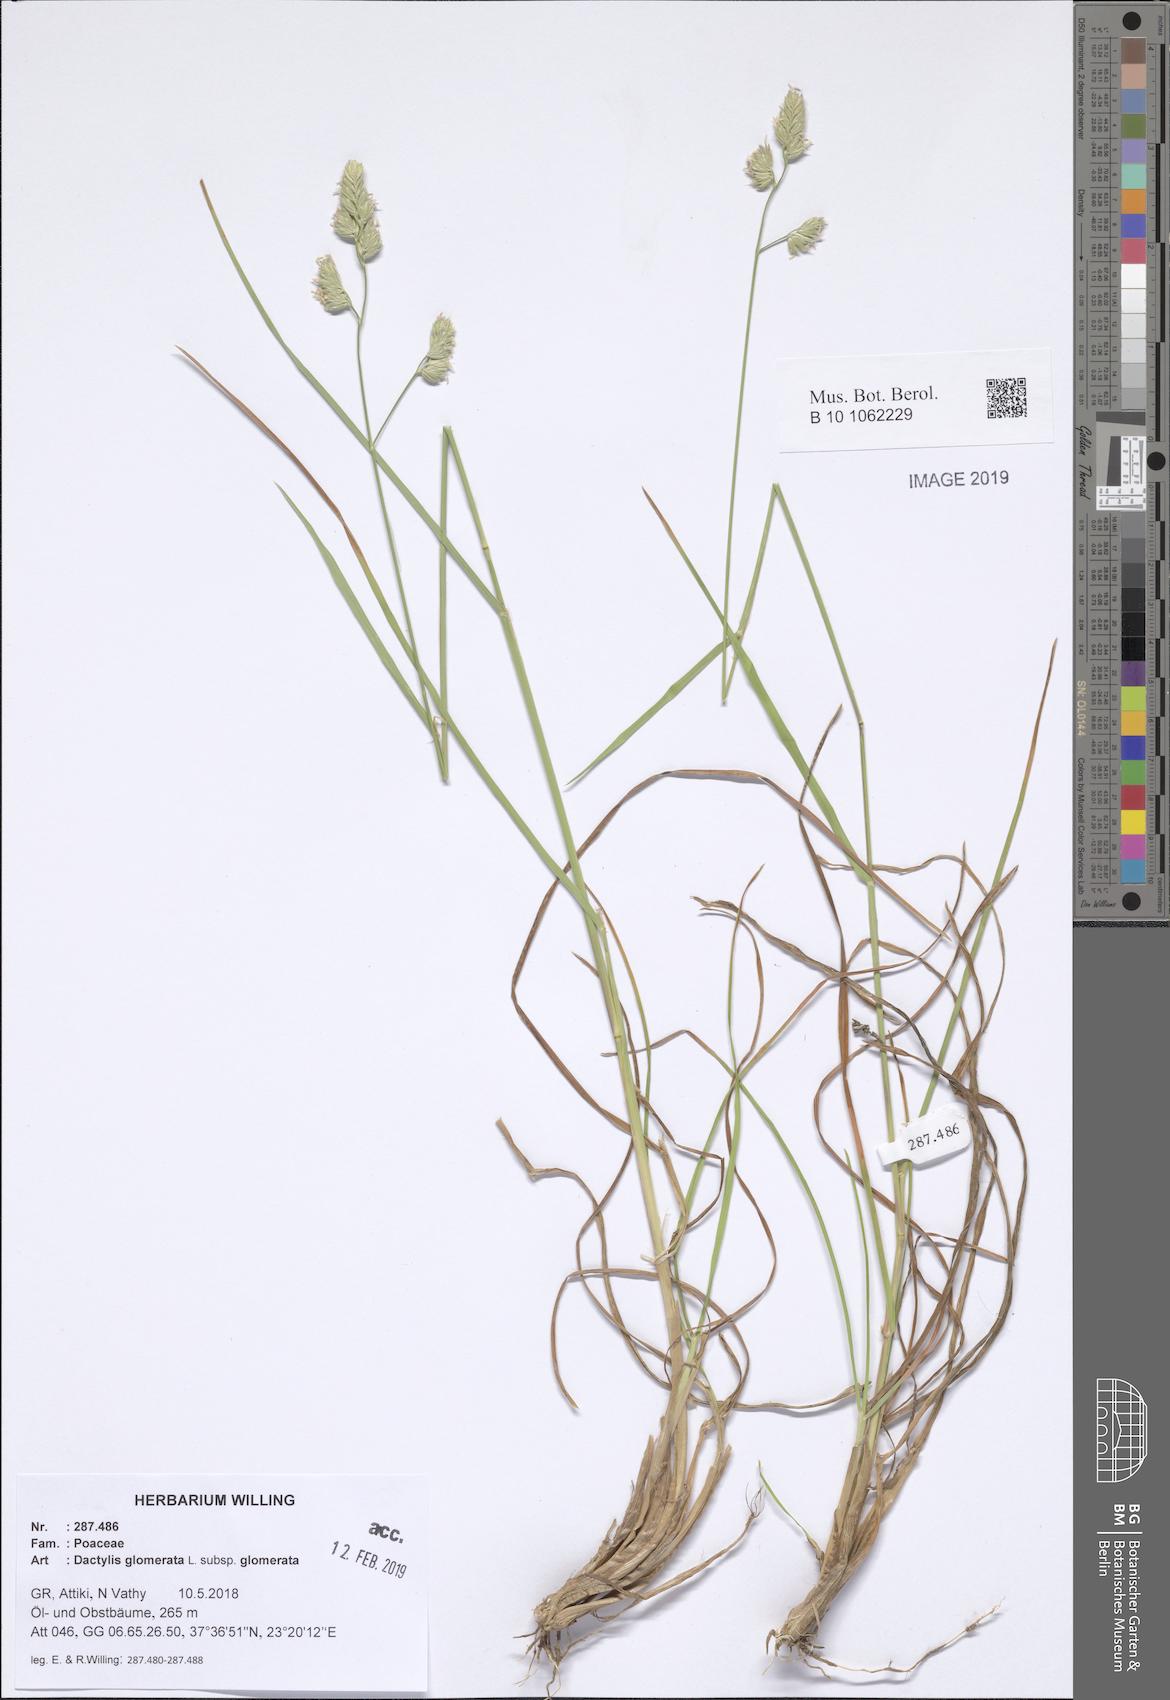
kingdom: Plantae
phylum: Tracheophyta
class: Liliopsida
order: Poales
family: Poaceae
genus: Dactylis
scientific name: Dactylis glomerata
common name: Orchardgrass
